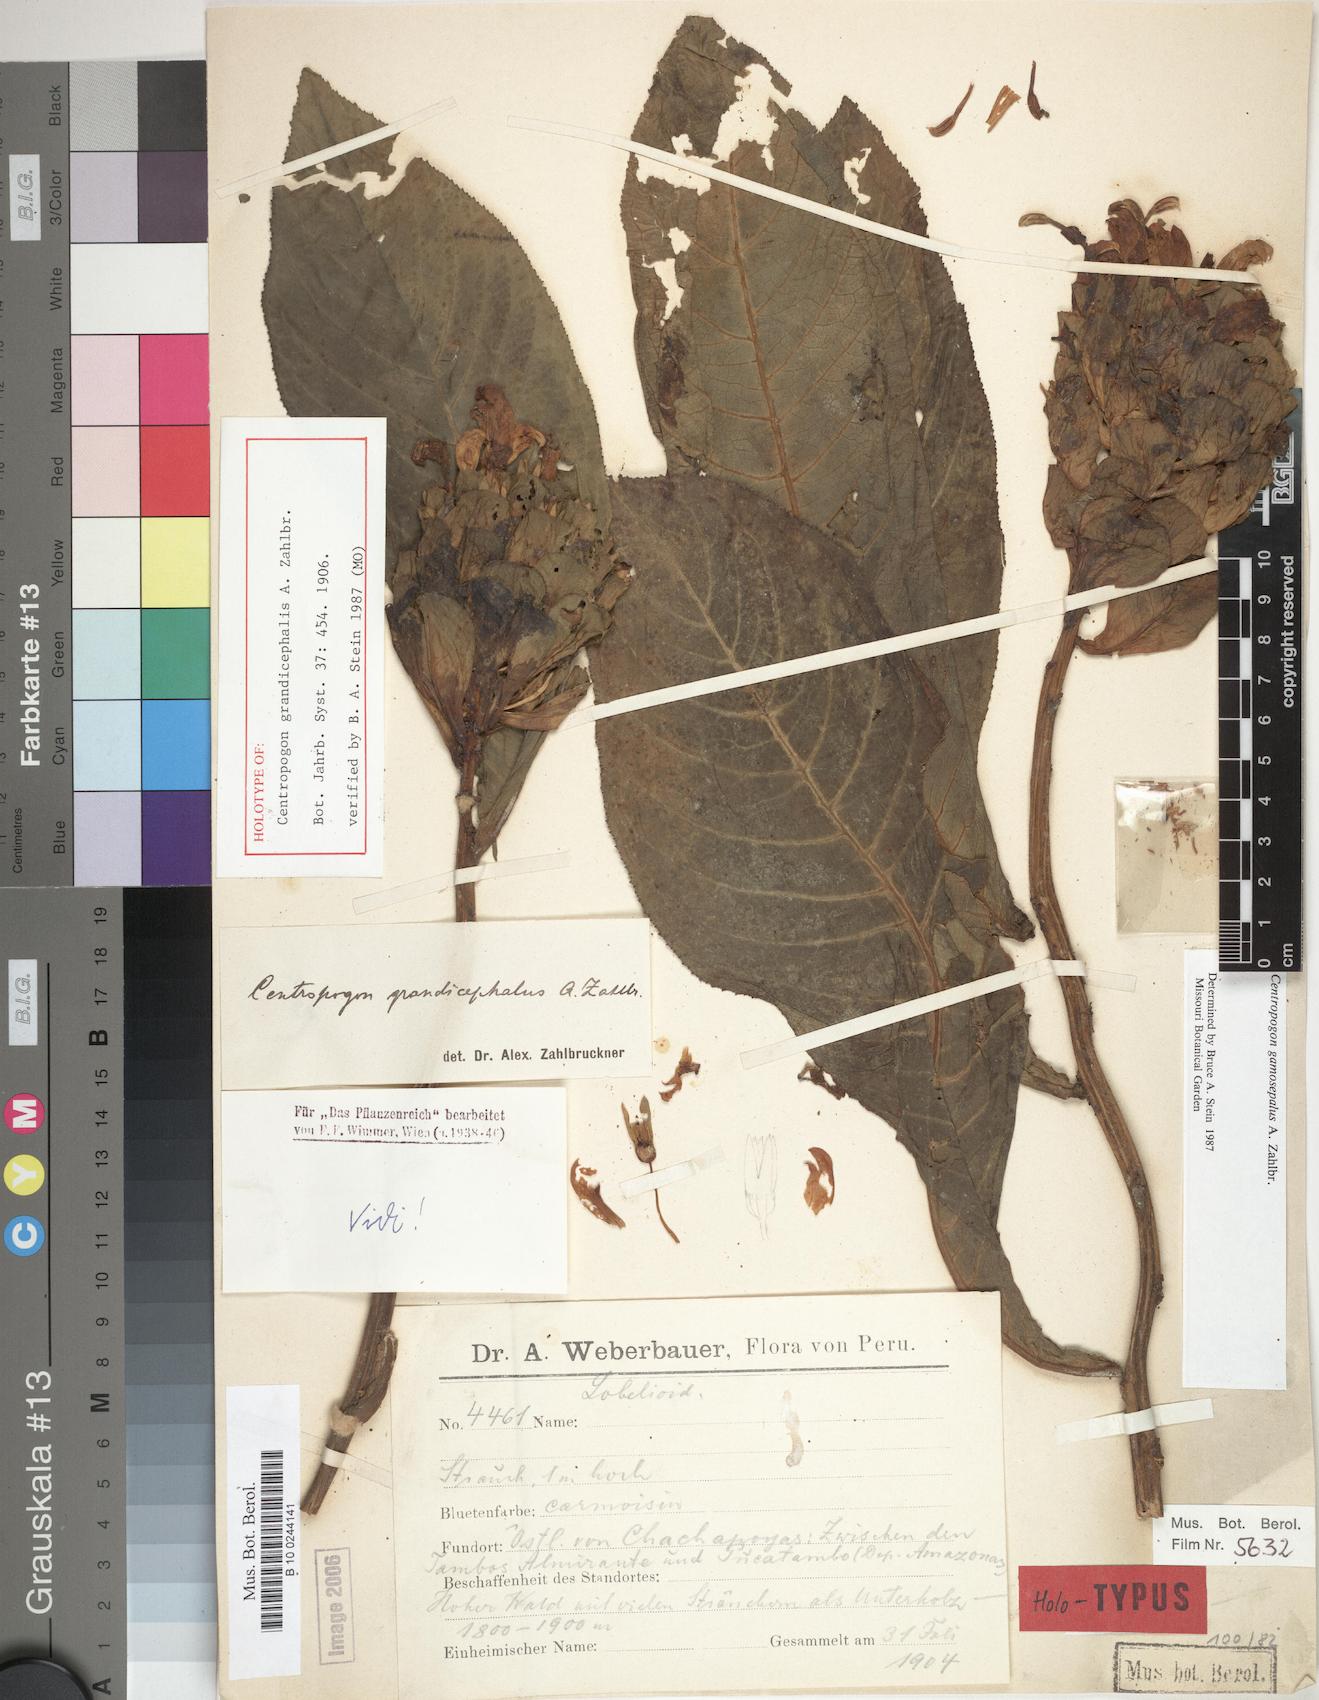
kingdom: Plantae
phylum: Tracheophyta
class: Magnoliopsida
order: Asterales
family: Campanulaceae
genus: Centropogon
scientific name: Centropogon gamosepalus
